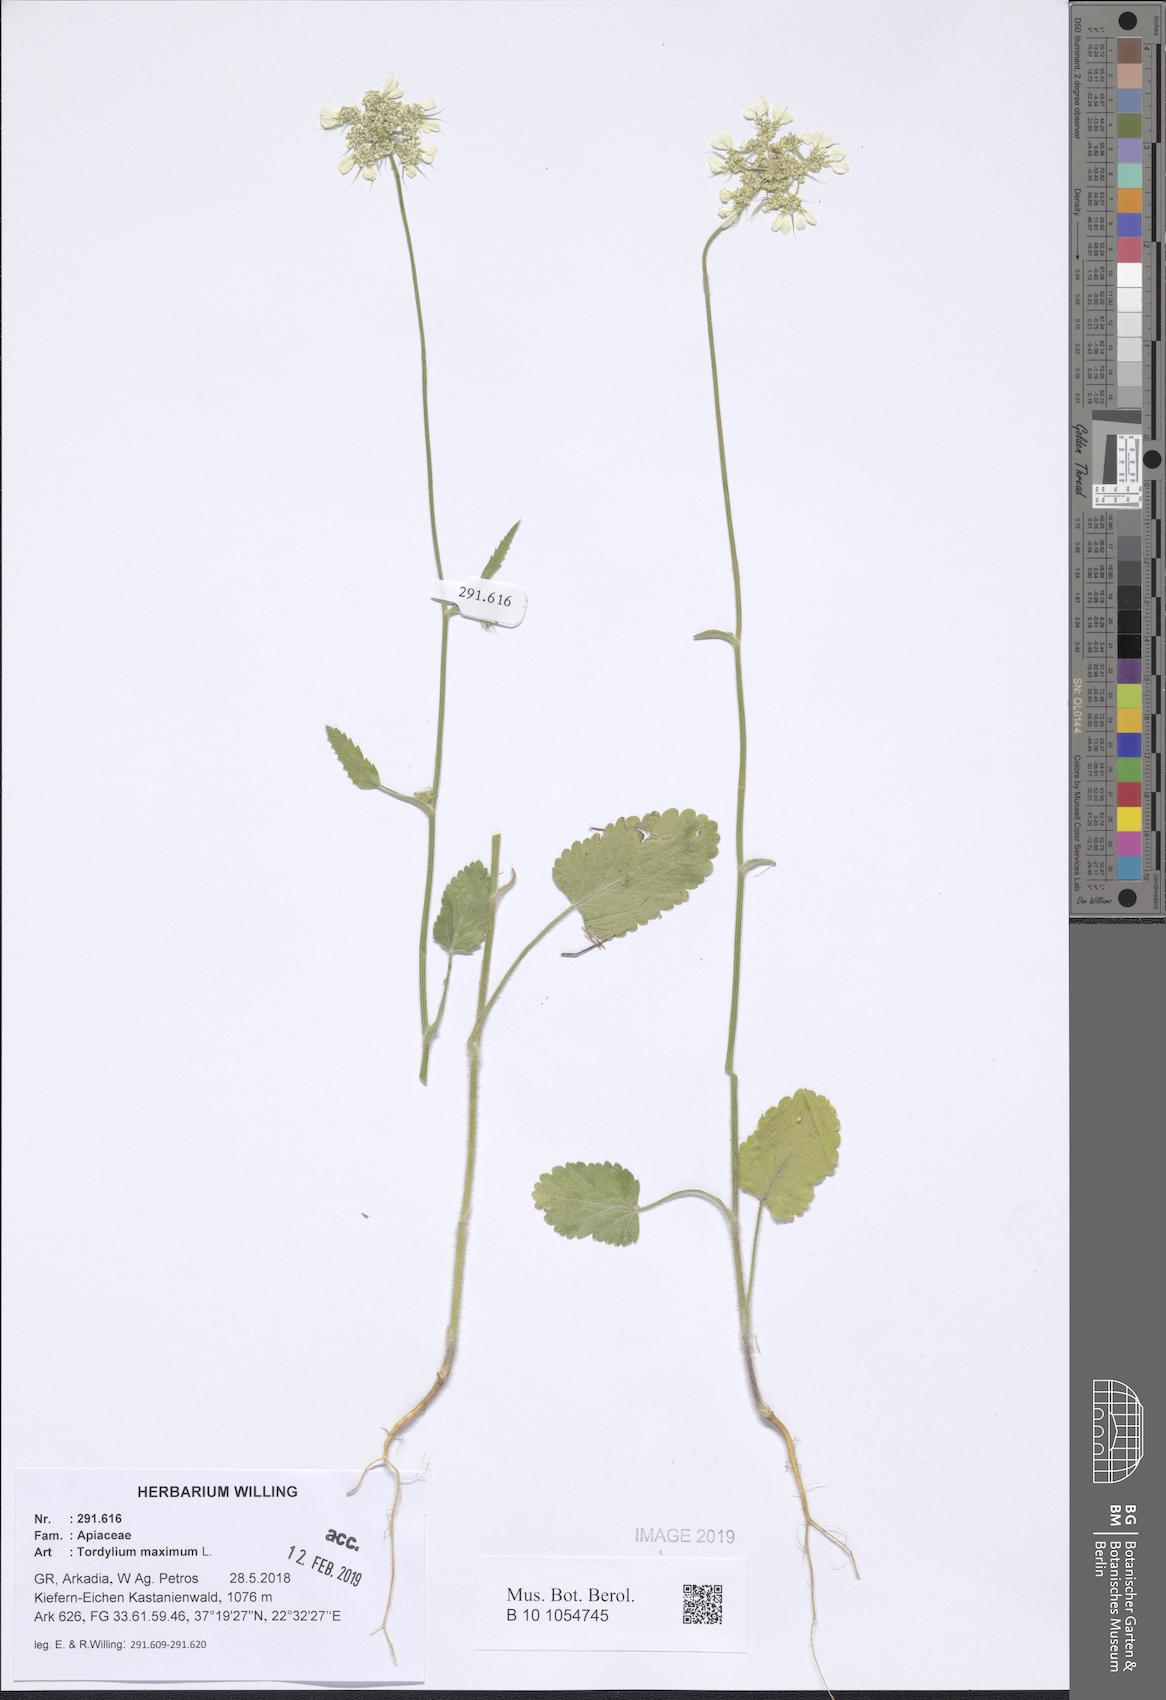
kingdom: Plantae
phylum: Tracheophyta
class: Magnoliopsida
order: Apiales
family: Apiaceae
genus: Tordylium
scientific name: Tordylium maximum
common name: Hartwort
